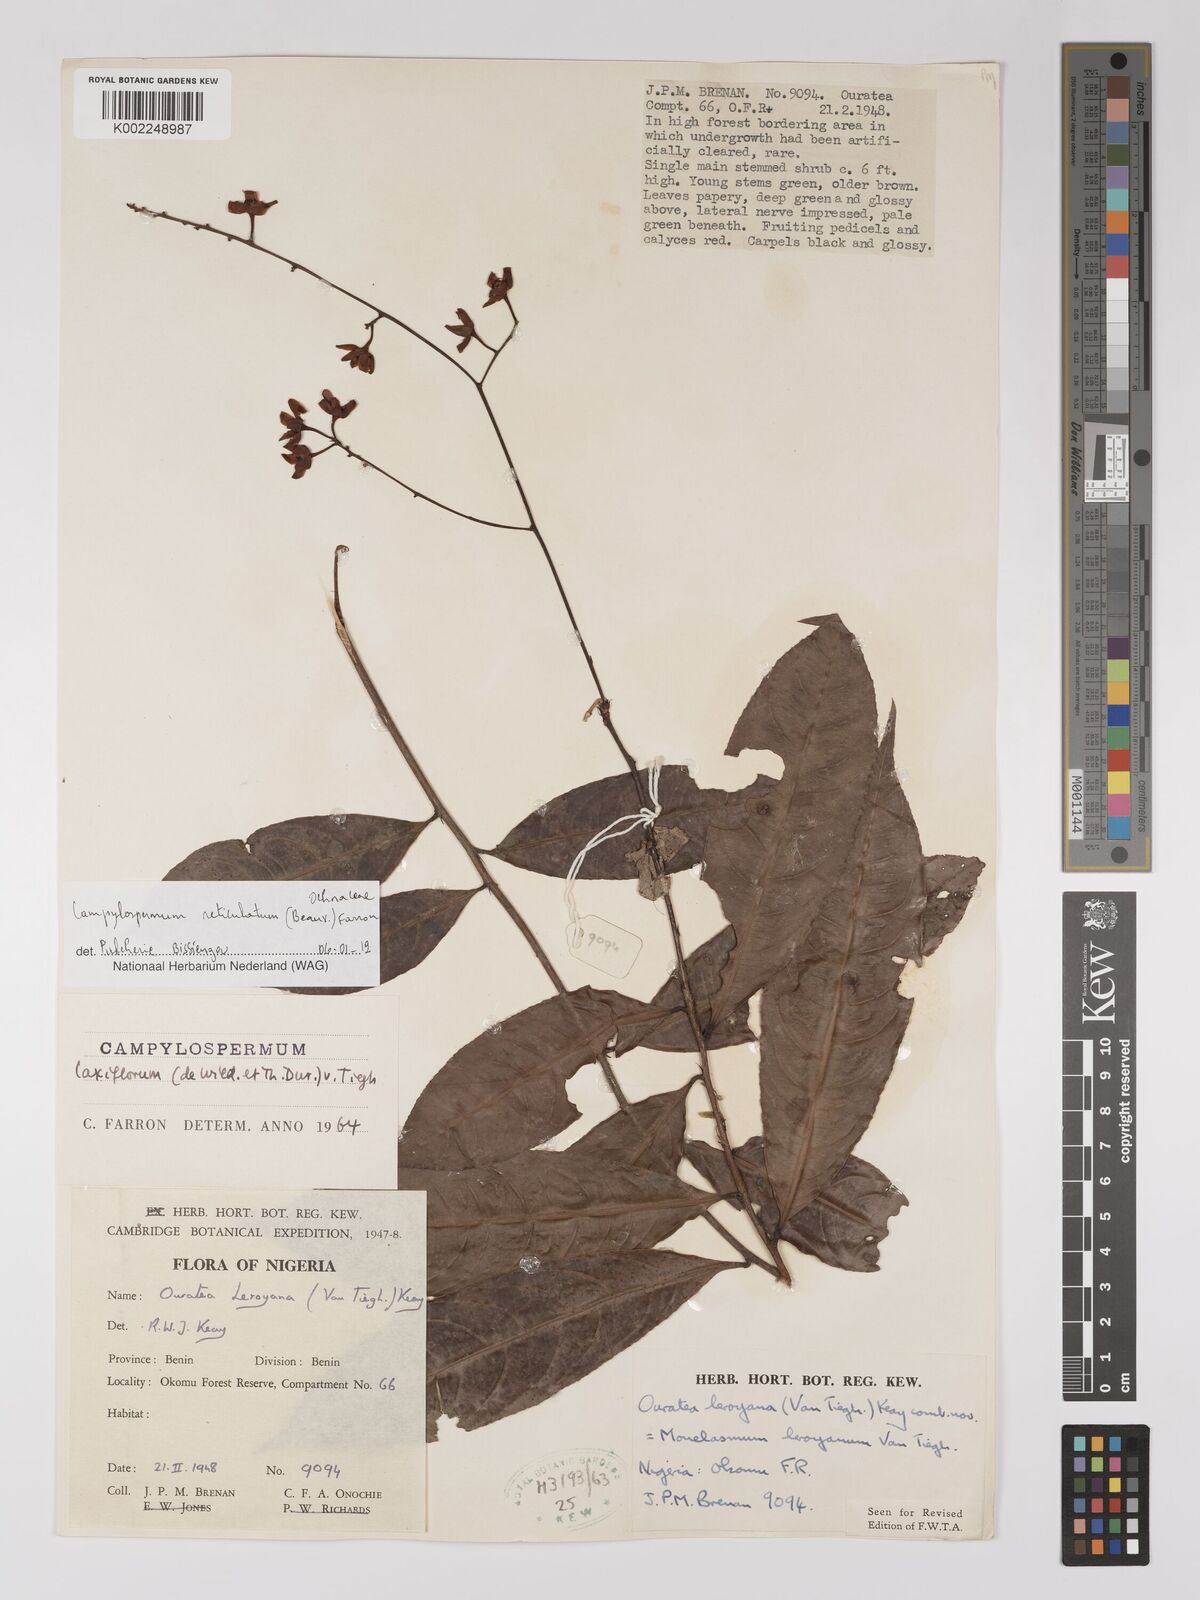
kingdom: Plantae
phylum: Tracheophyta
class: Magnoliopsida
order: Malpighiales
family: Ochnaceae
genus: Campylospermum
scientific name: Campylospermum reticulatum
